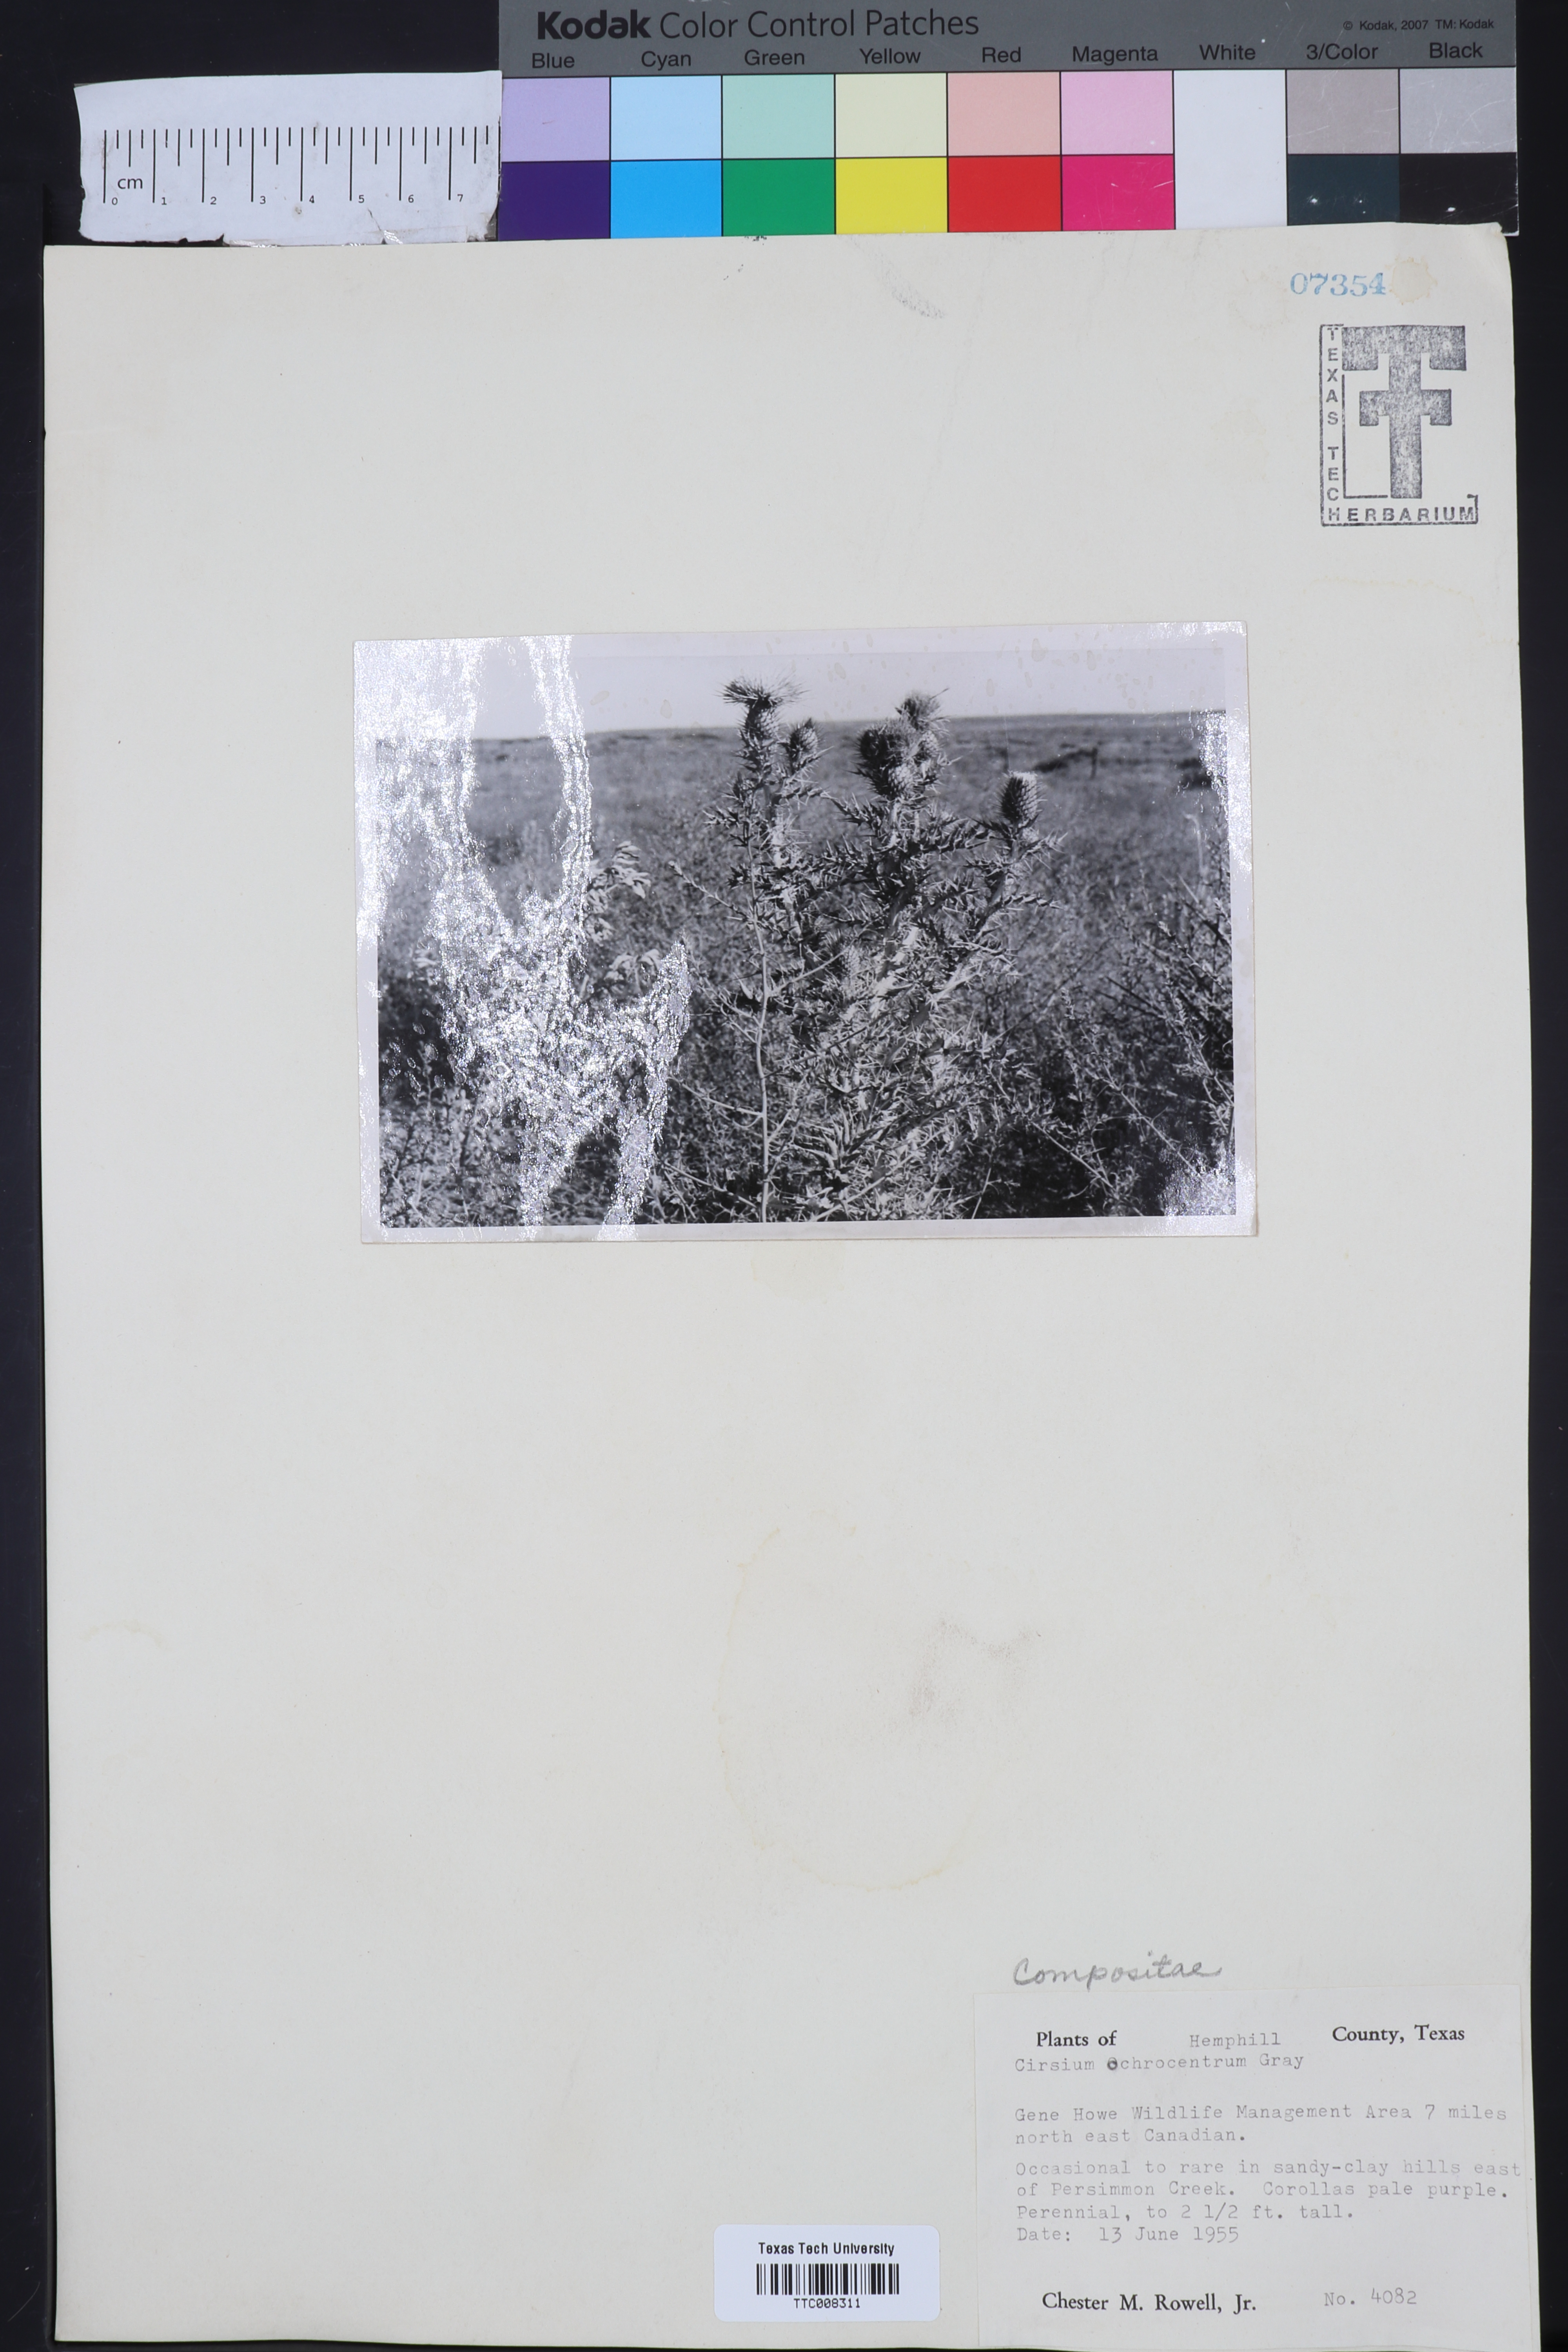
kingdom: Plantae
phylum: Tracheophyta
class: Magnoliopsida
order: Asterales
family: Asteraceae
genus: Cirsium
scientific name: Cirsium ochrocentrum
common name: Yellow-spine thistle
